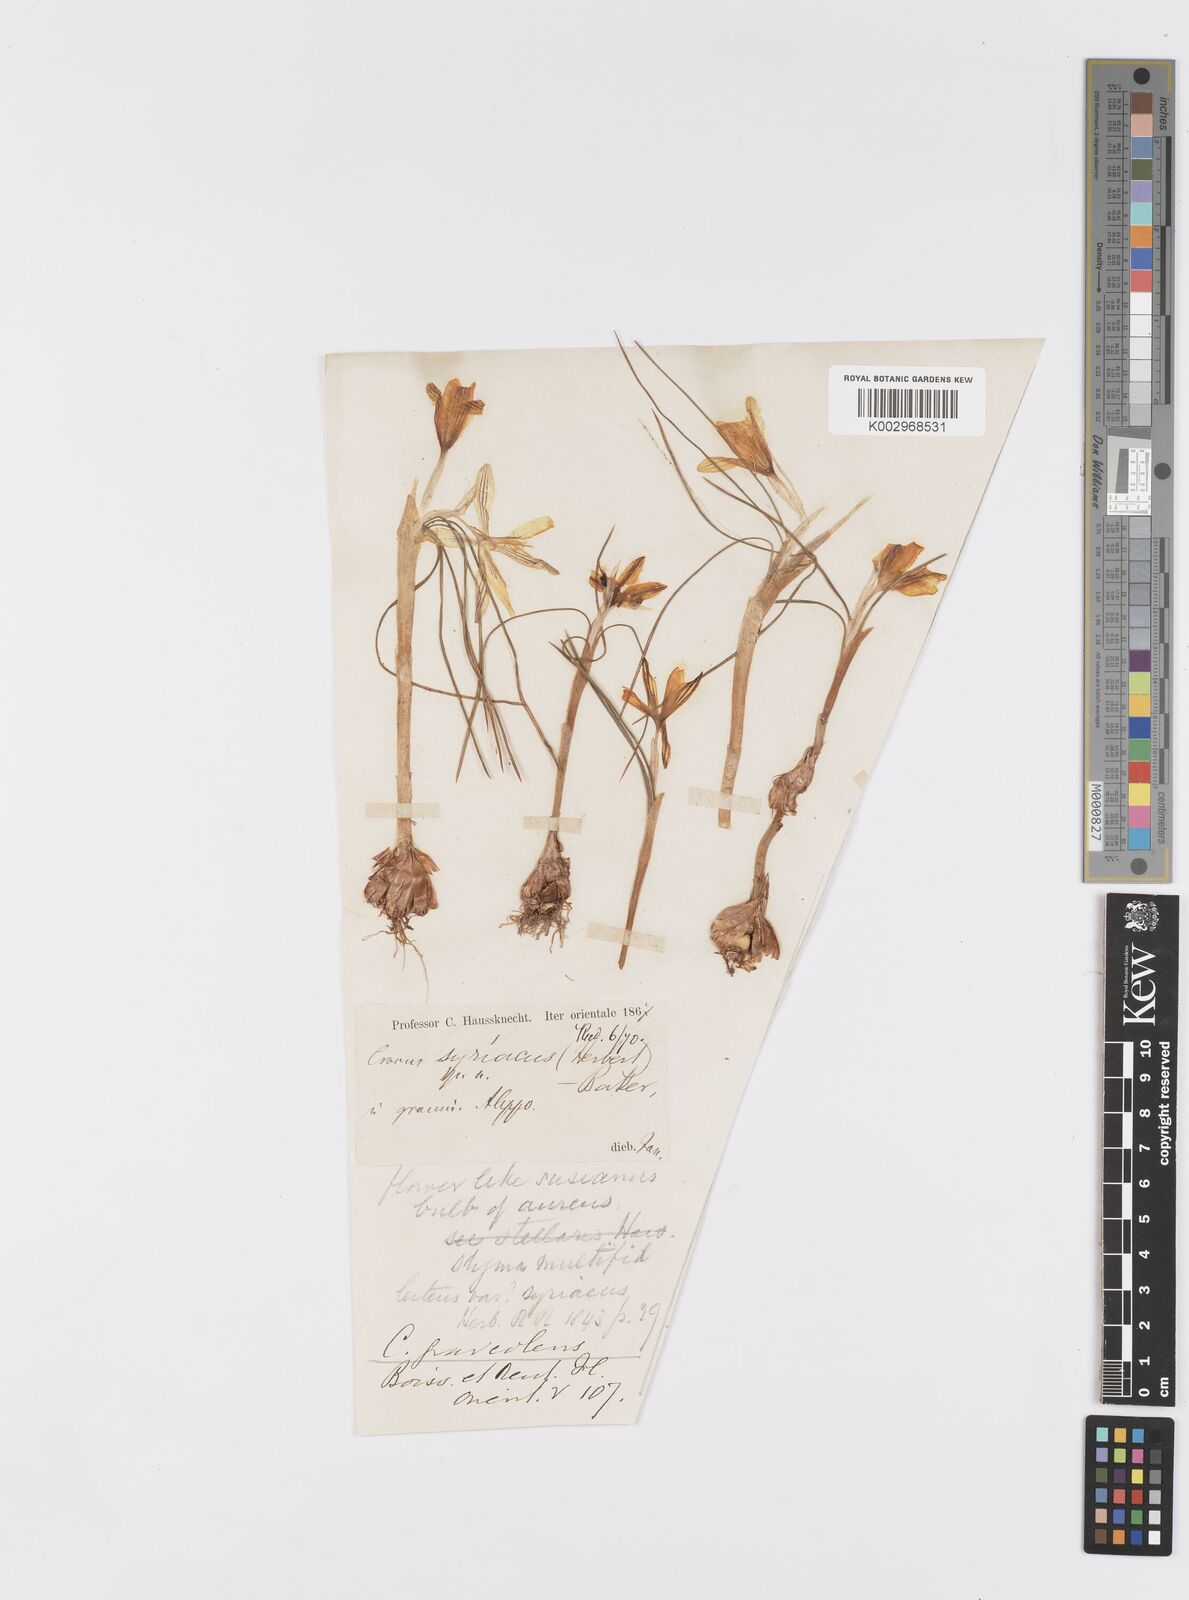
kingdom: Plantae
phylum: Tracheophyta
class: Liliopsida
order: Asparagales
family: Iridaceae
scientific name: Iridaceae
